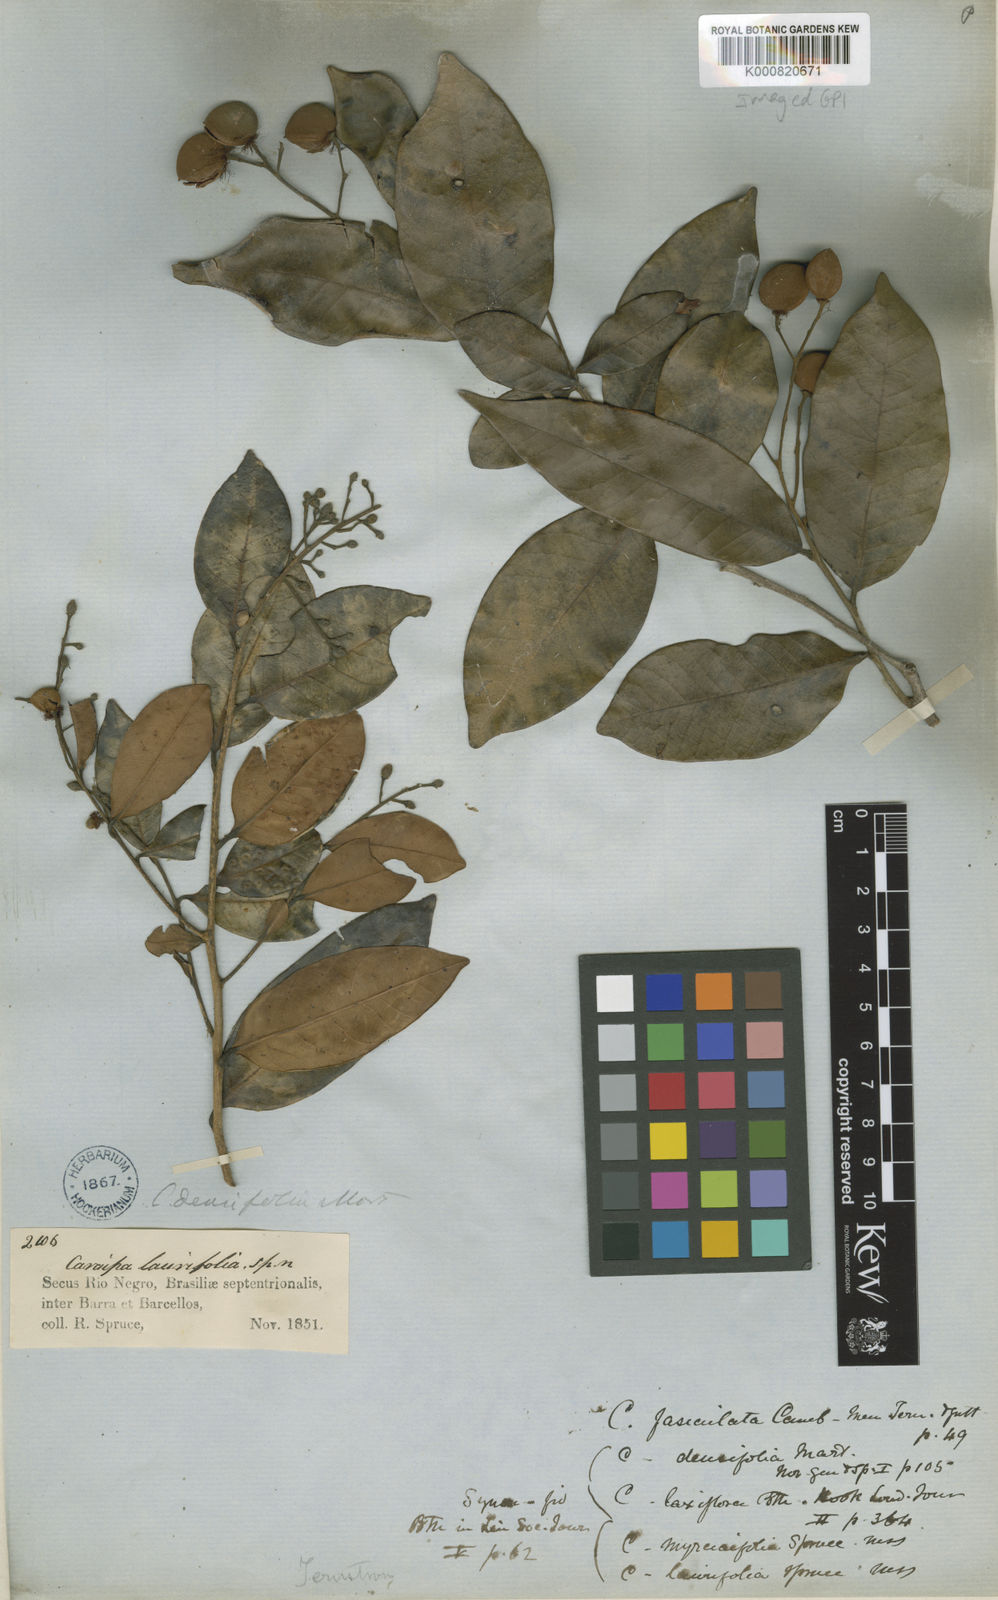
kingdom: Plantae
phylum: Tracheophyta
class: Magnoliopsida
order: Malpighiales
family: Calophyllaceae
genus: Caraipa
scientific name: Caraipa densifolia
